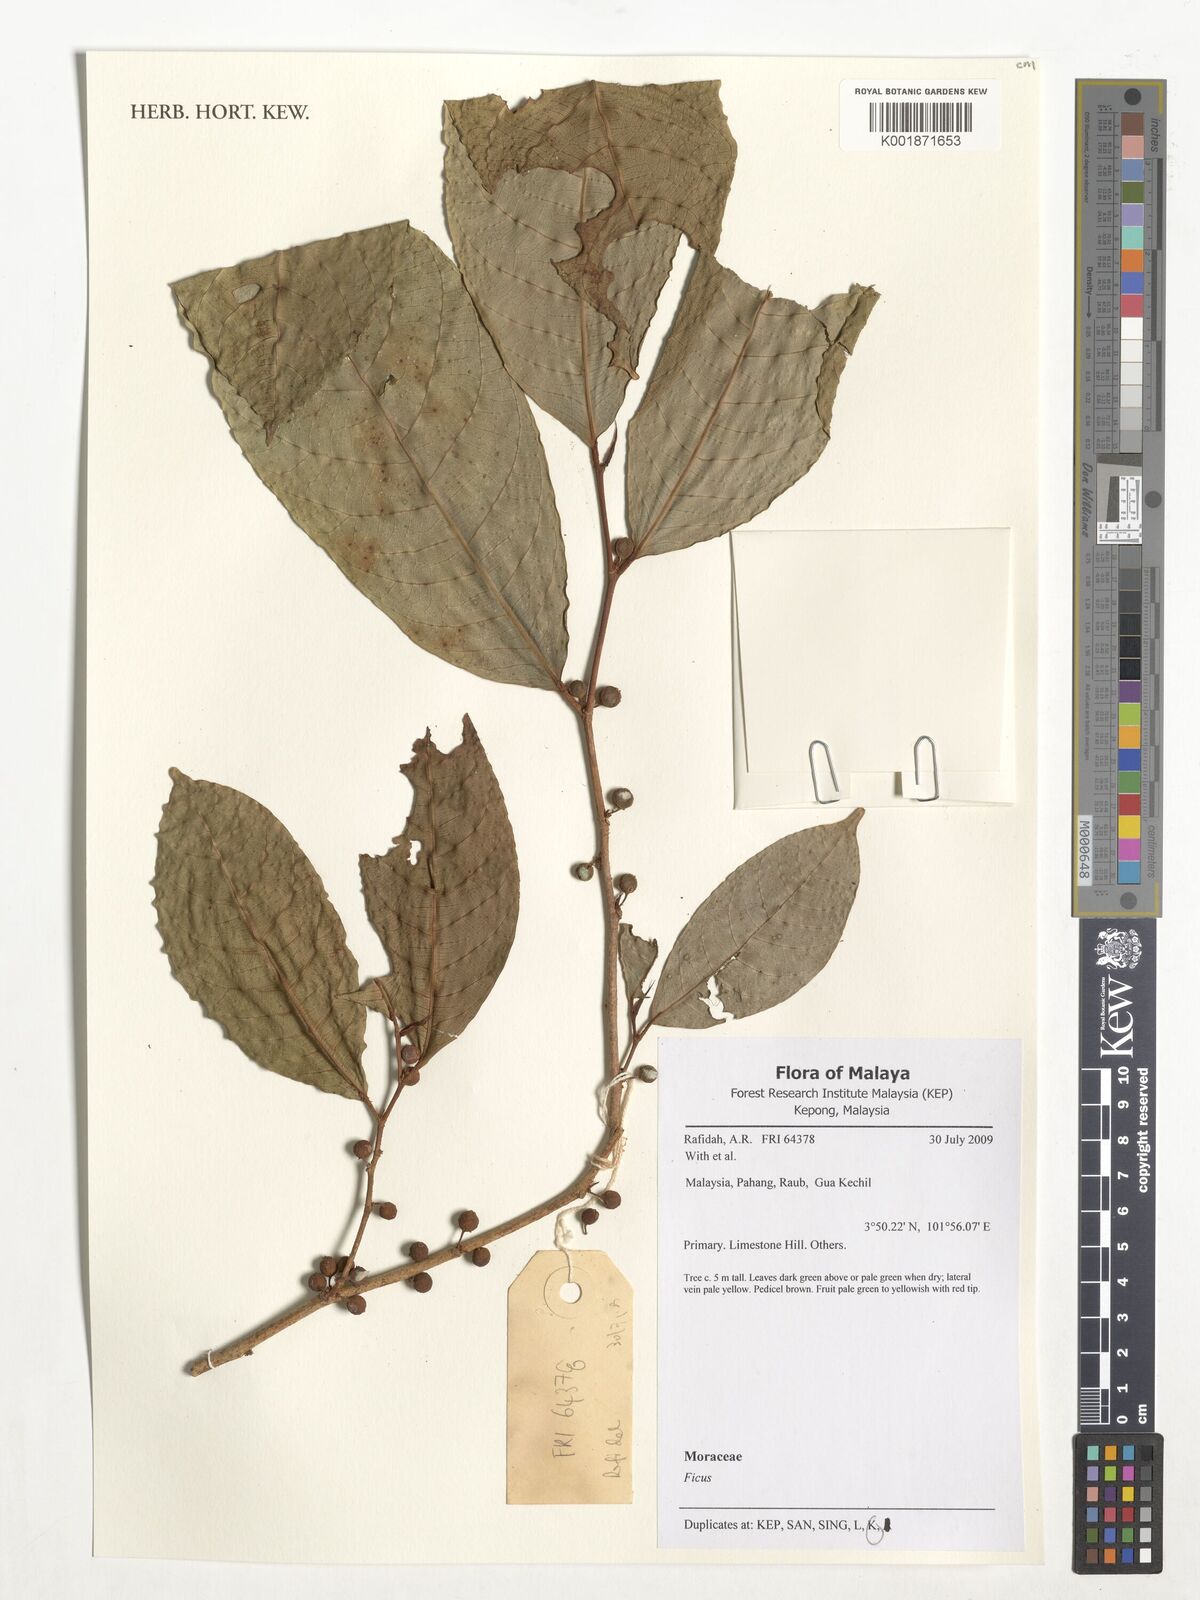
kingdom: Plantae
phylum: Tracheophyta
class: Magnoliopsida
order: Rosales
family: Moraceae
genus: Ficus
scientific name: Ficus
